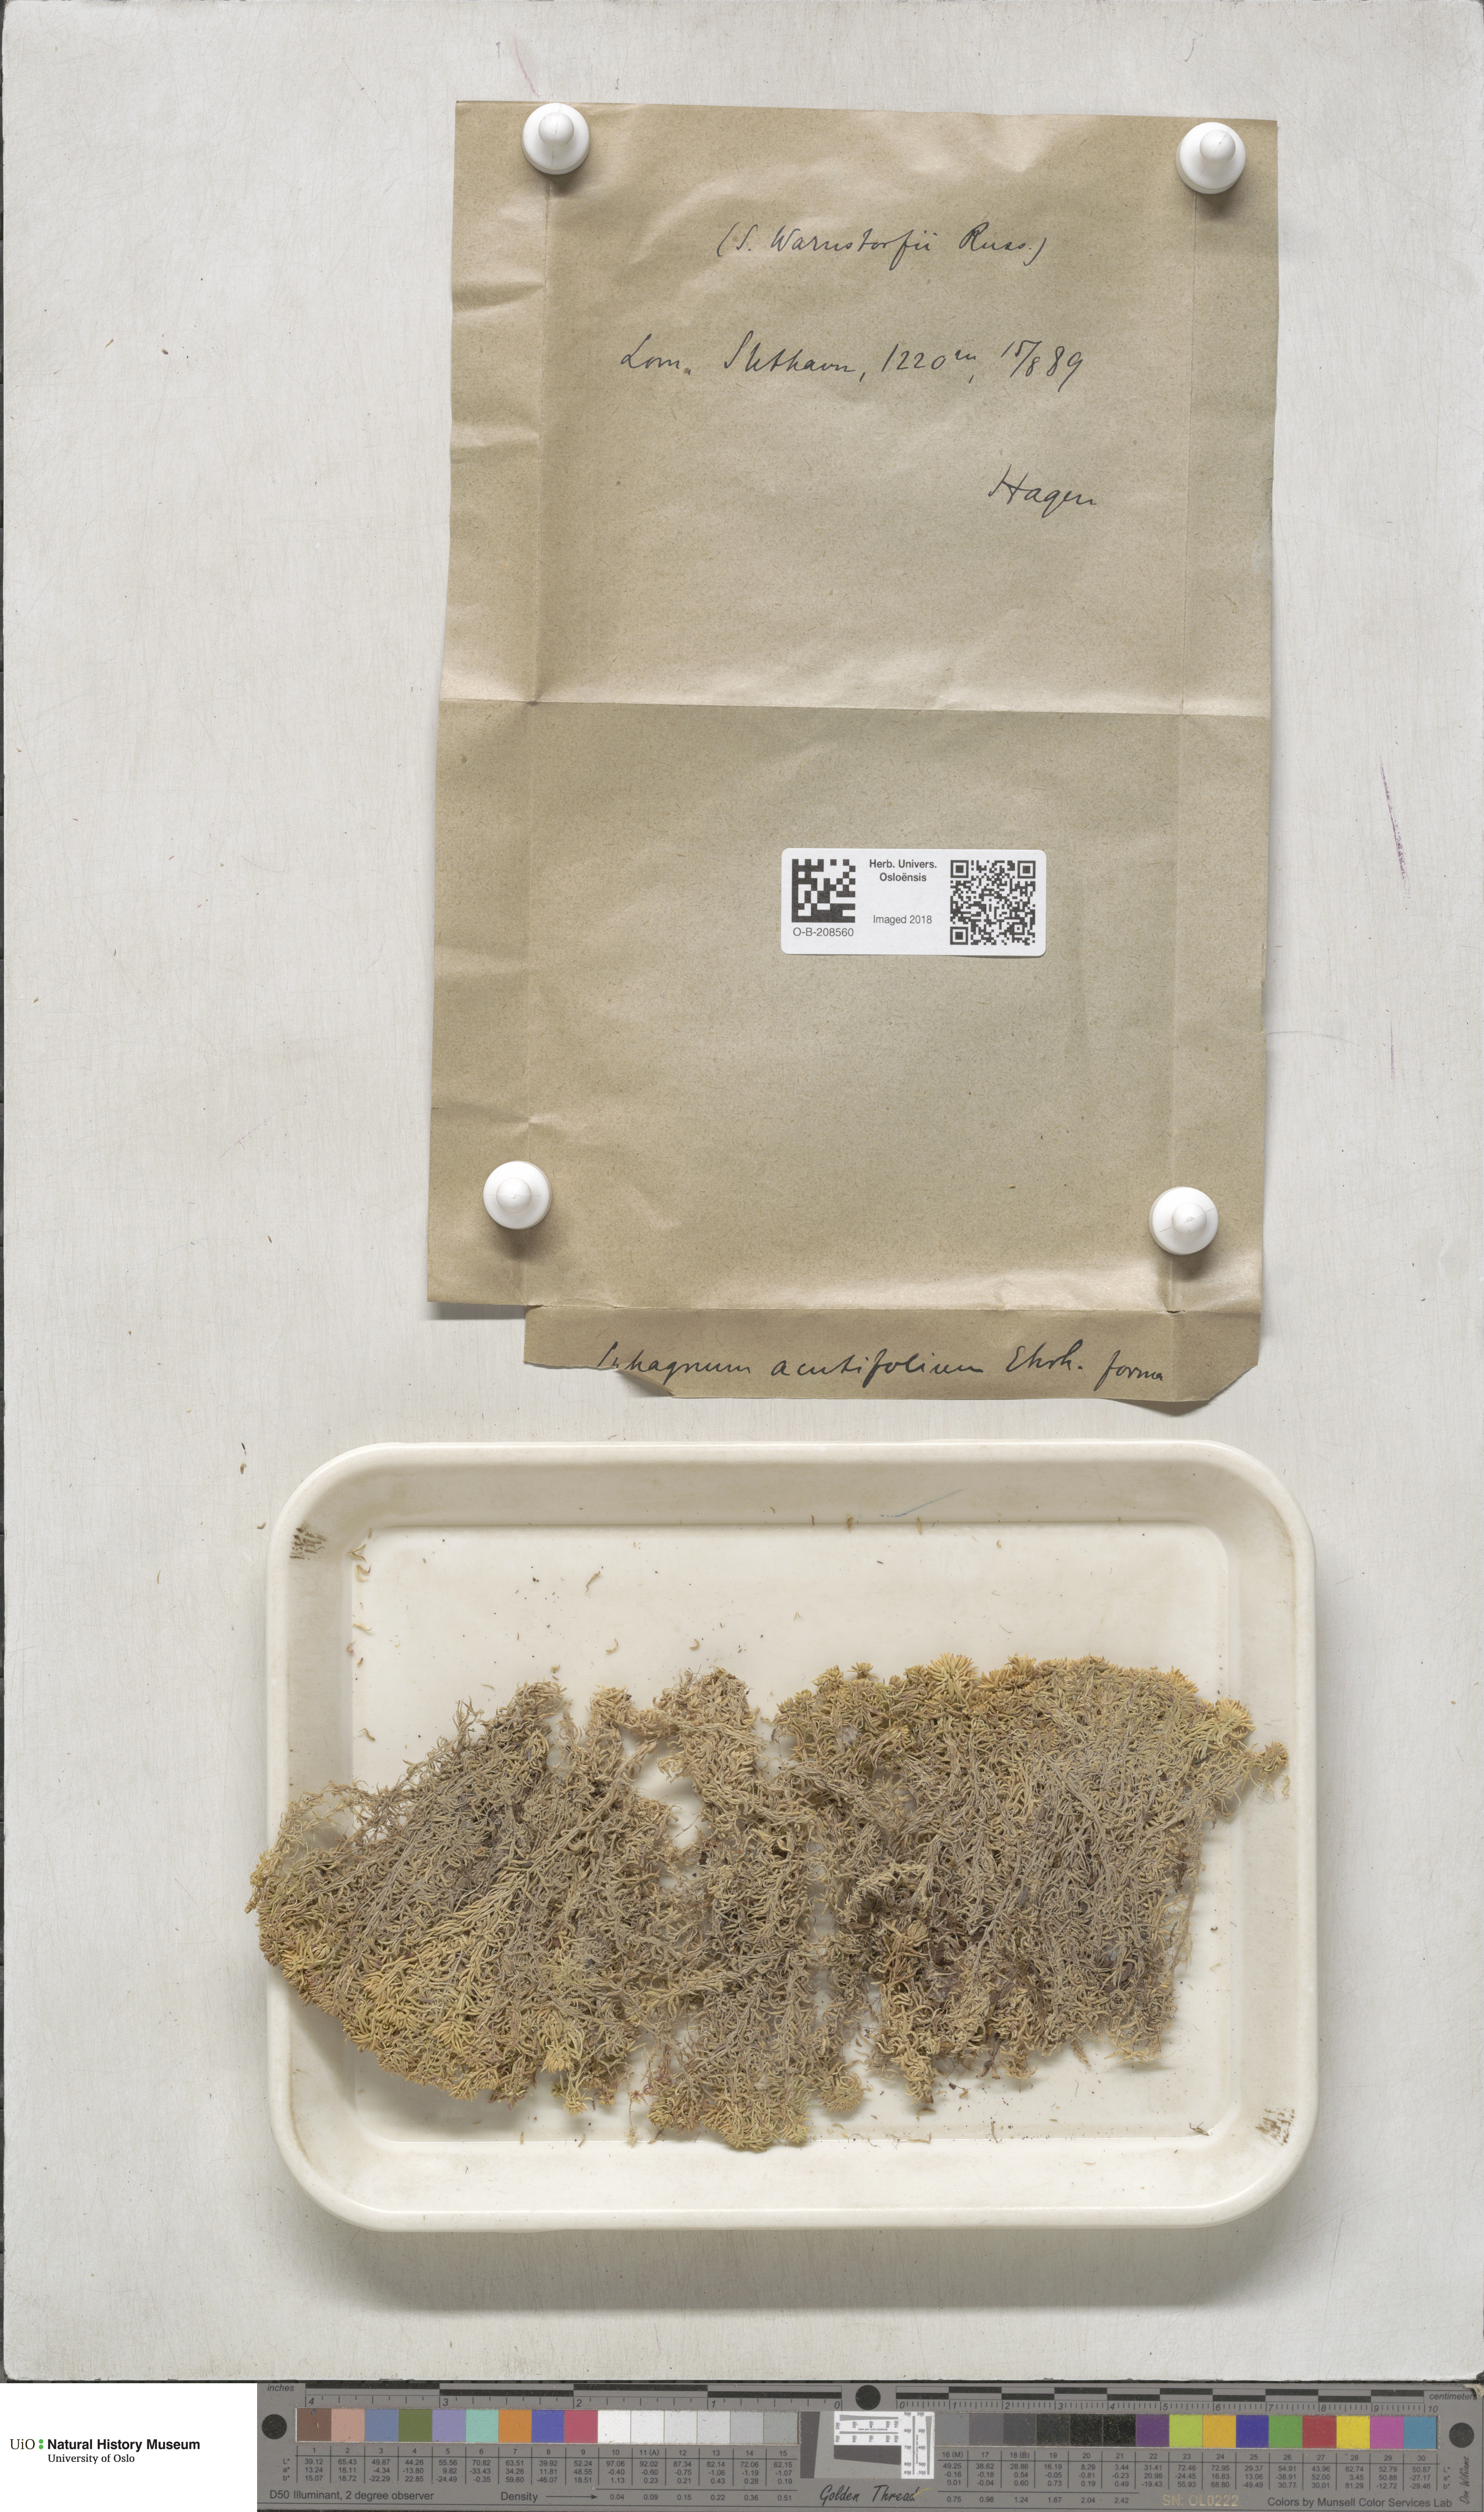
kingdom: Plantae
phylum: Bryophyta
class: Sphagnopsida
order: Sphagnales
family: Sphagnaceae
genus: Sphagnum
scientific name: Sphagnum warnstorfii
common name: Warnstorf's peat moss
